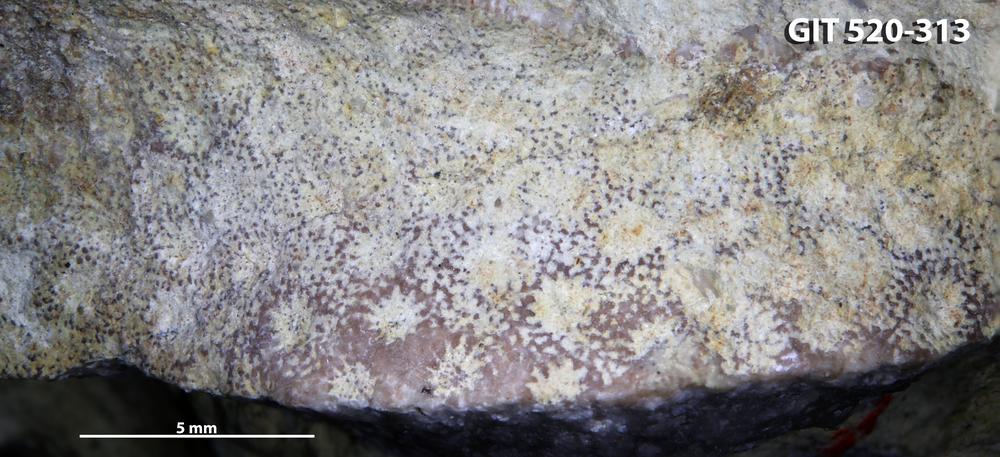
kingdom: Animalia
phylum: Cnidaria
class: Anthozoa
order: Scleractinia
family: Poritidae
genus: Protaraea
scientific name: Protaraea
